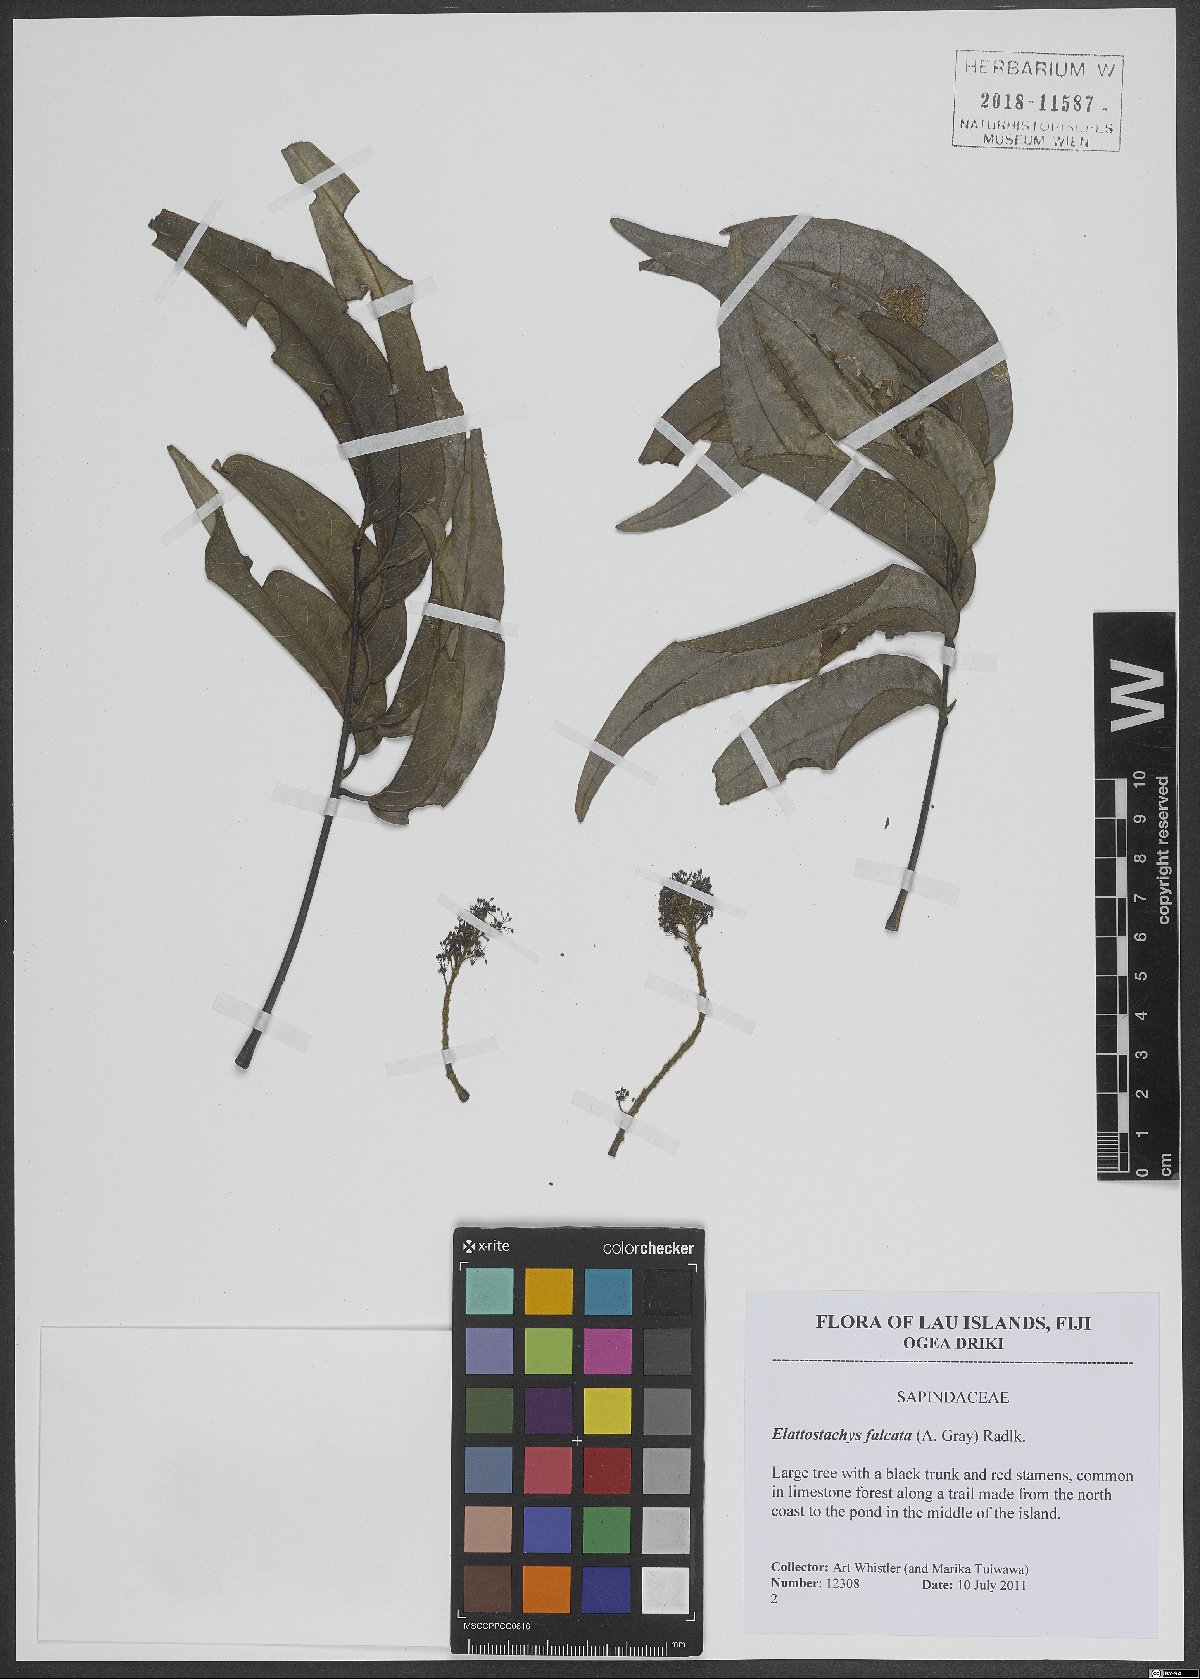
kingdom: Plantae
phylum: Tracheophyta
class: Magnoliopsida
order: Sapindales
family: Sapindaceae
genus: Elattostachys
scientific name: Elattostachys apetala
